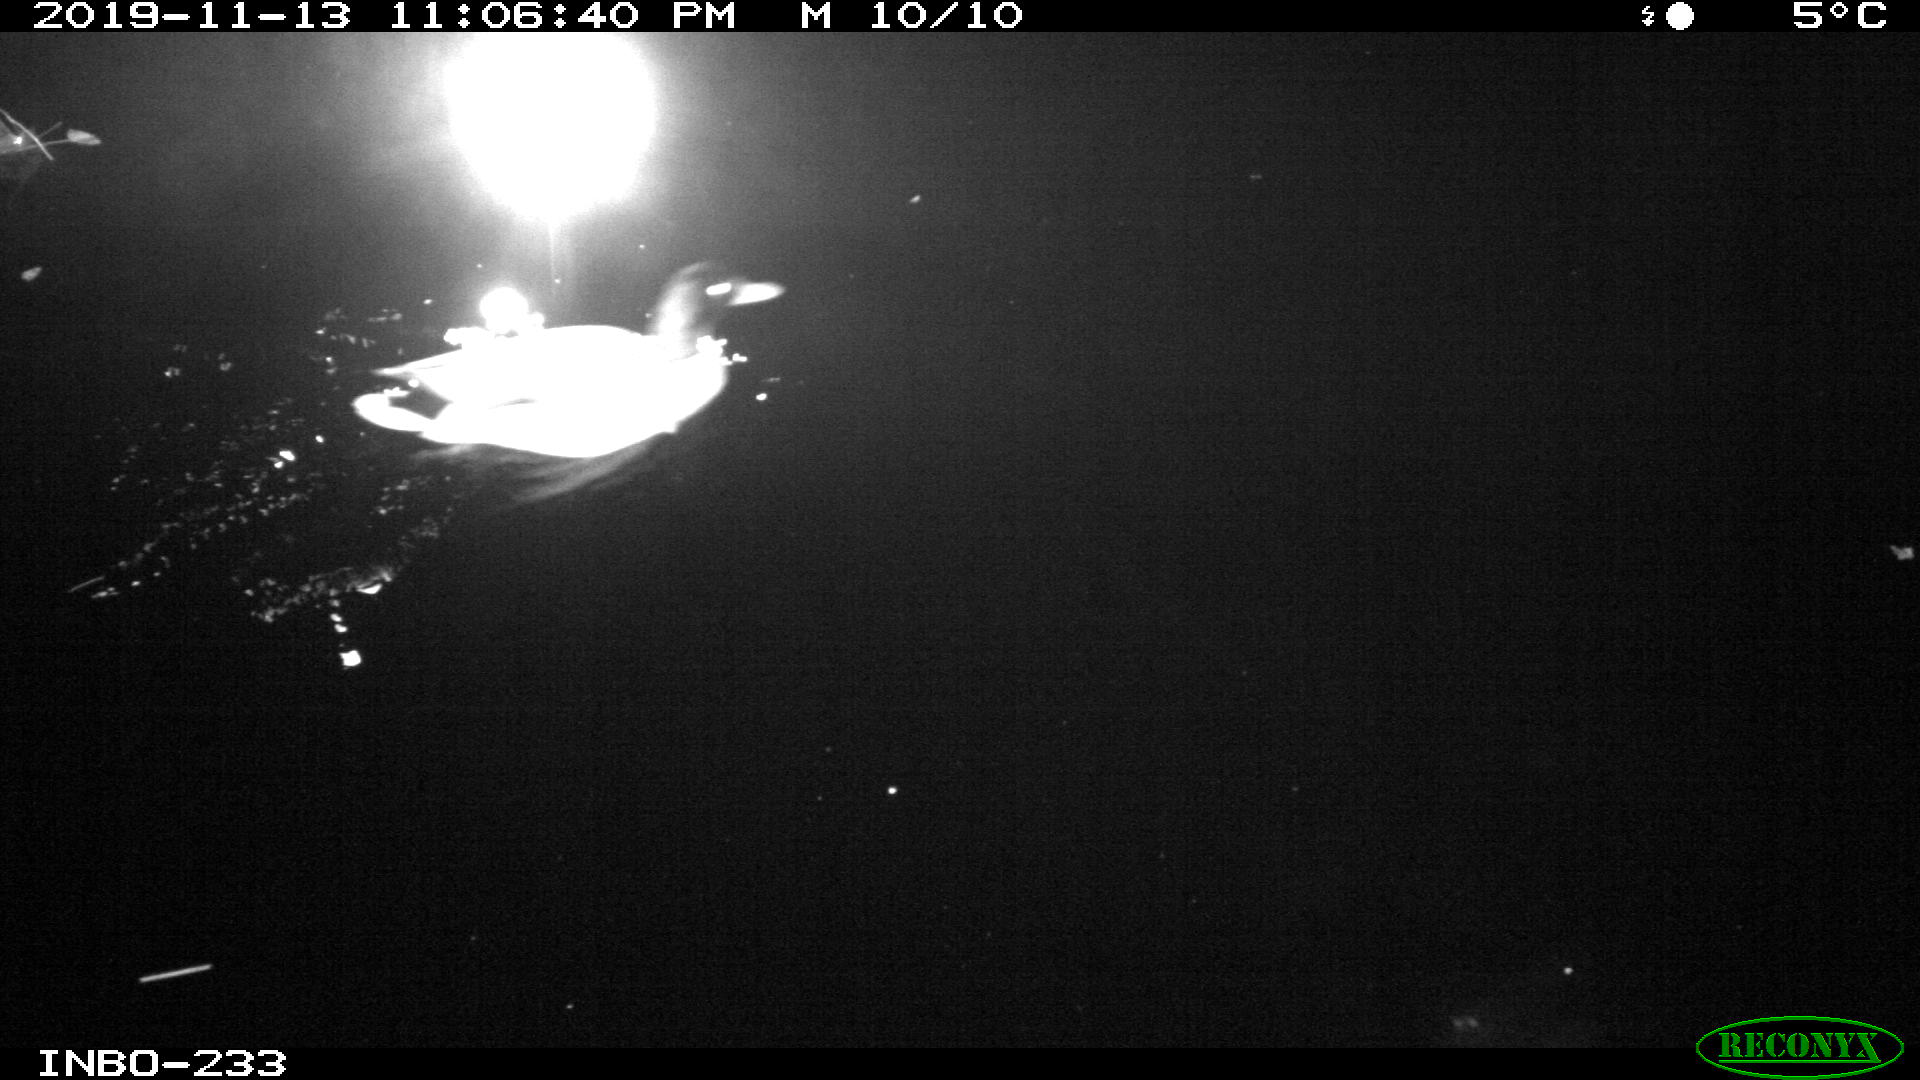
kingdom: Animalia
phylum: Chordata
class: Aves
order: Anseriformes
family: Anatidae
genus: Anas
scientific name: Anas platyrhynchos
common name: Mallard
